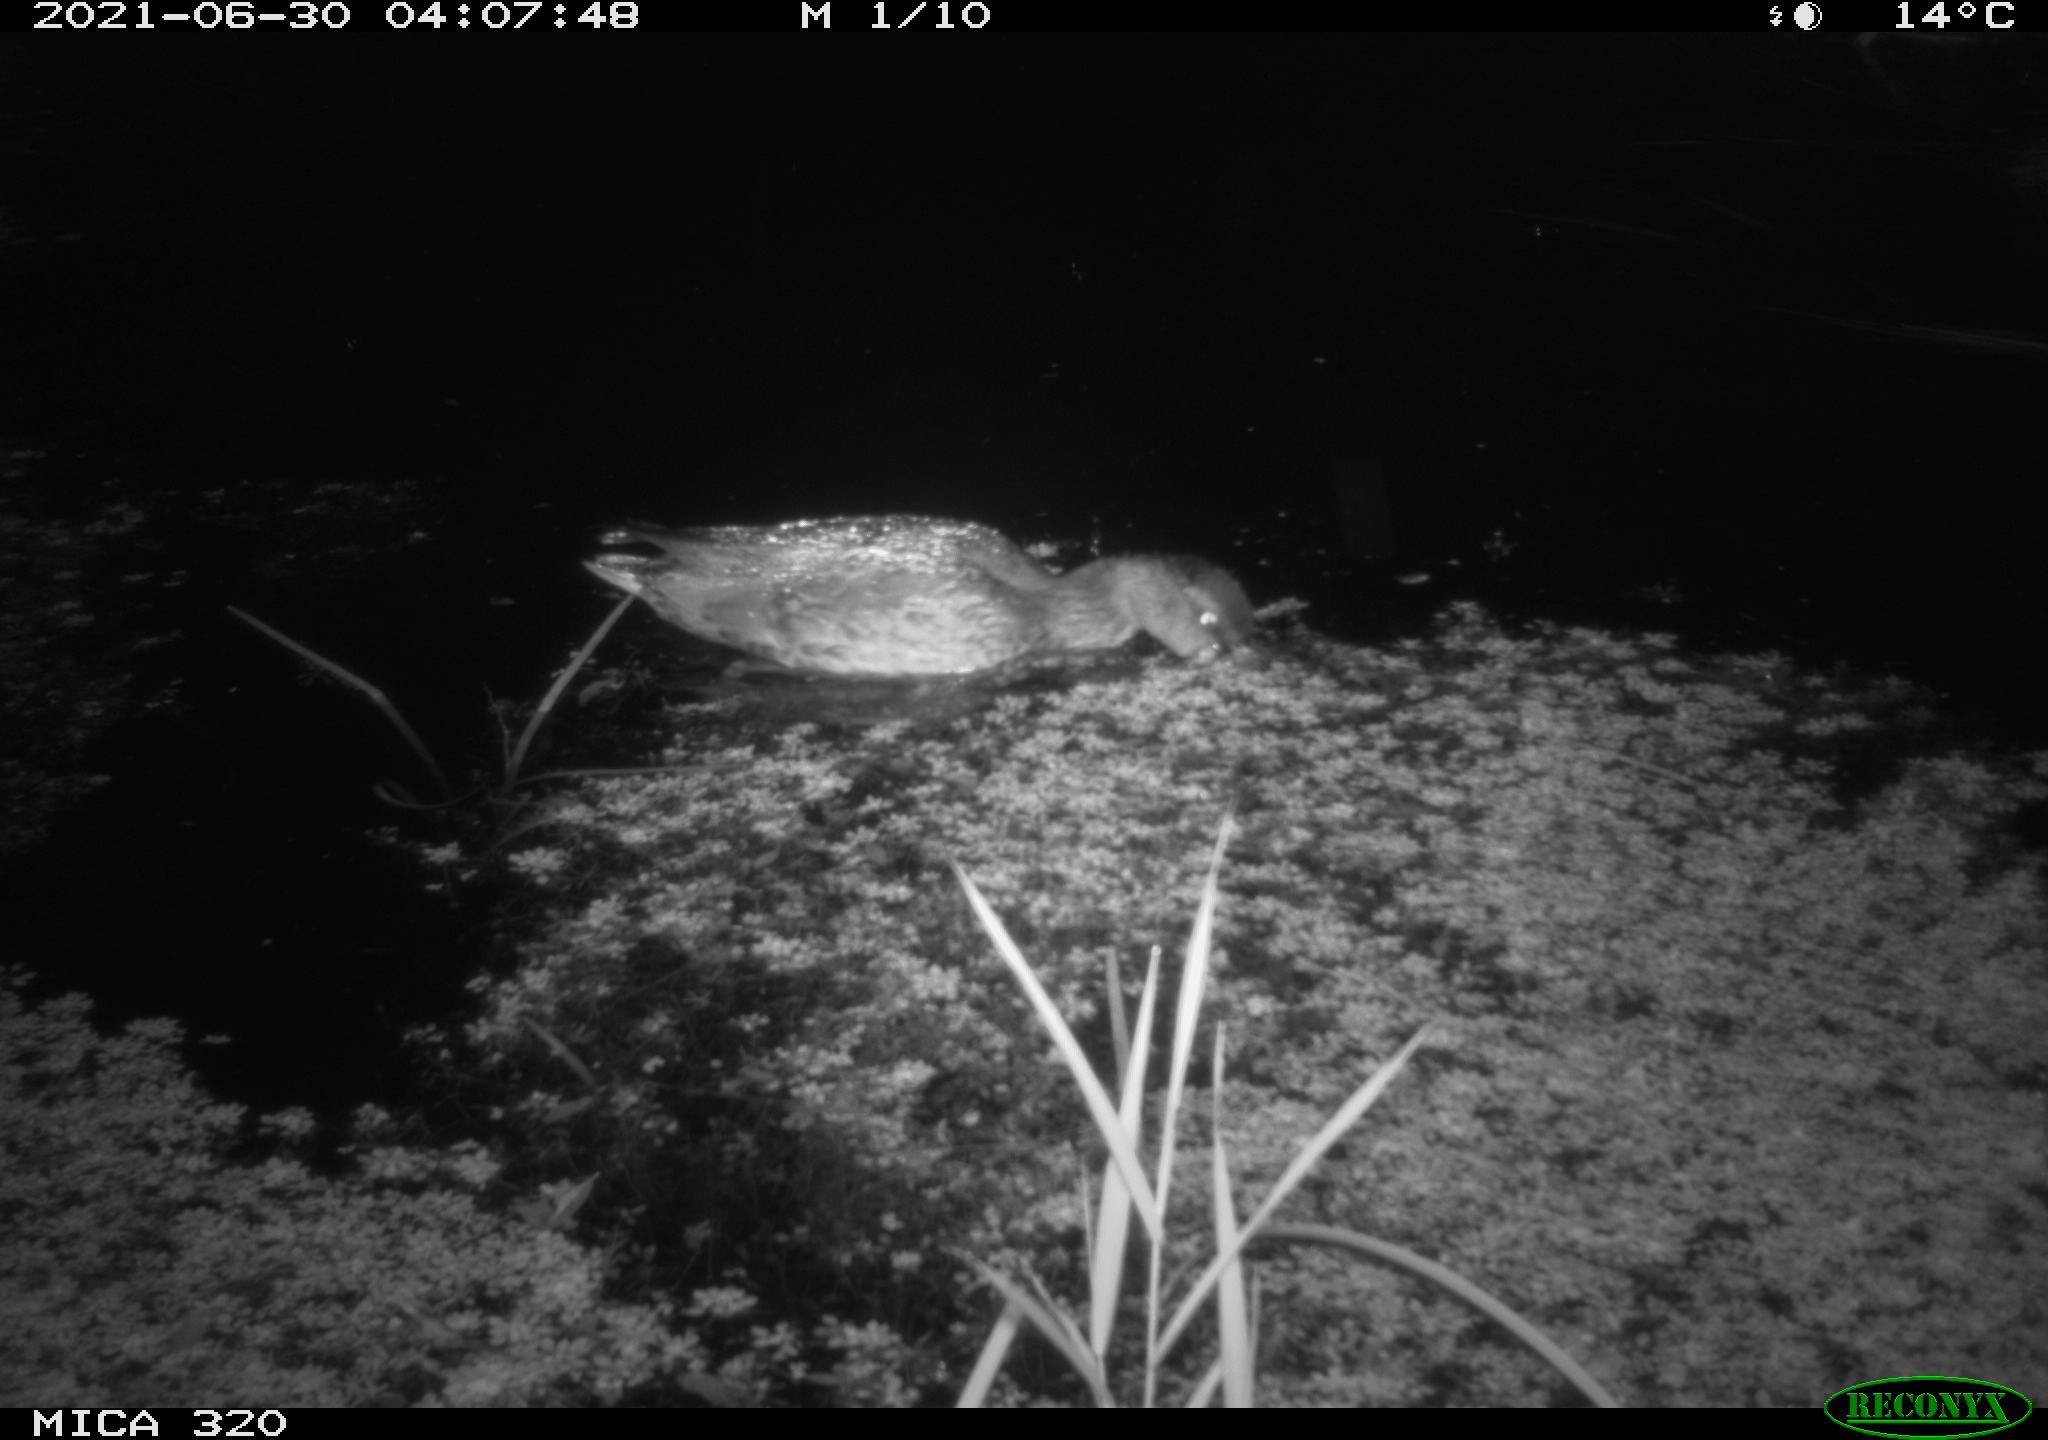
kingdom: Animalia
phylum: Chordata
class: Aves
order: Anseriformes
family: Anatidae
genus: Anas
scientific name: Anas platyrhynchos
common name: Mallard
